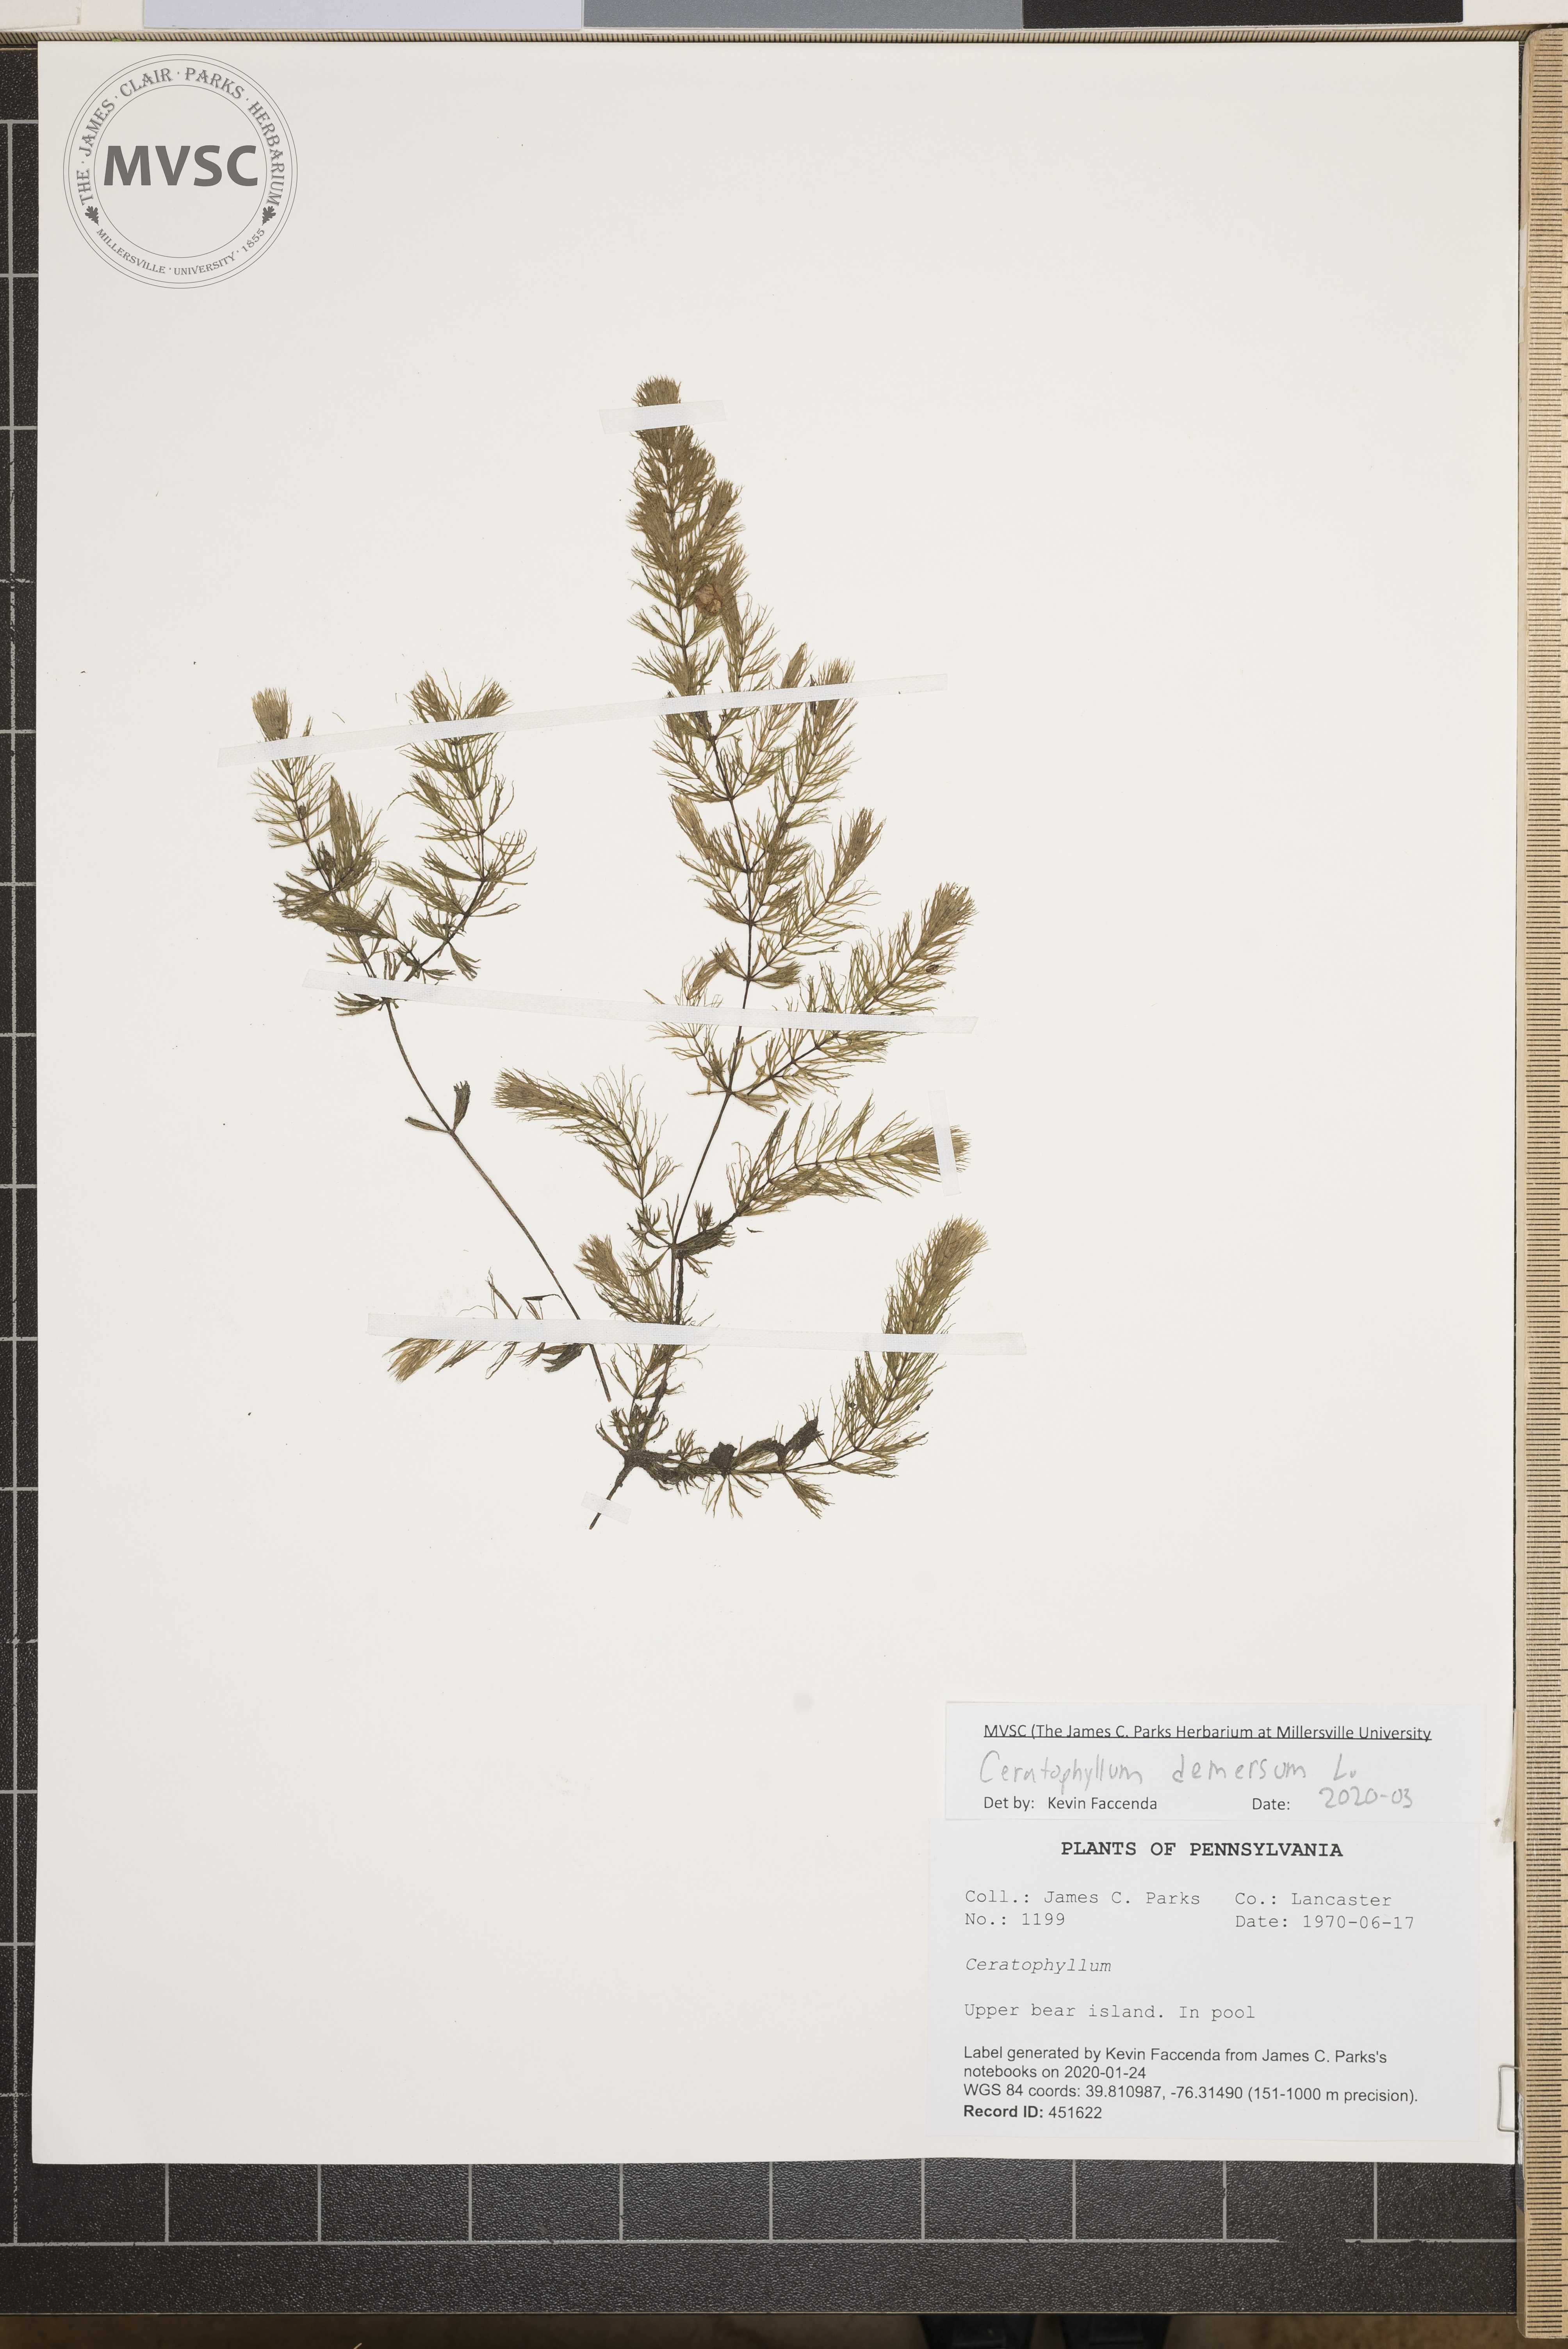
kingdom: Plantae
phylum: Tracheophyta
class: Magnoliopsida
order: Ceratophyllales
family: Ceratophyllaceae
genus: Ceratophyllum
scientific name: Ceratophyllum demersum
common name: Rigid hornwort
